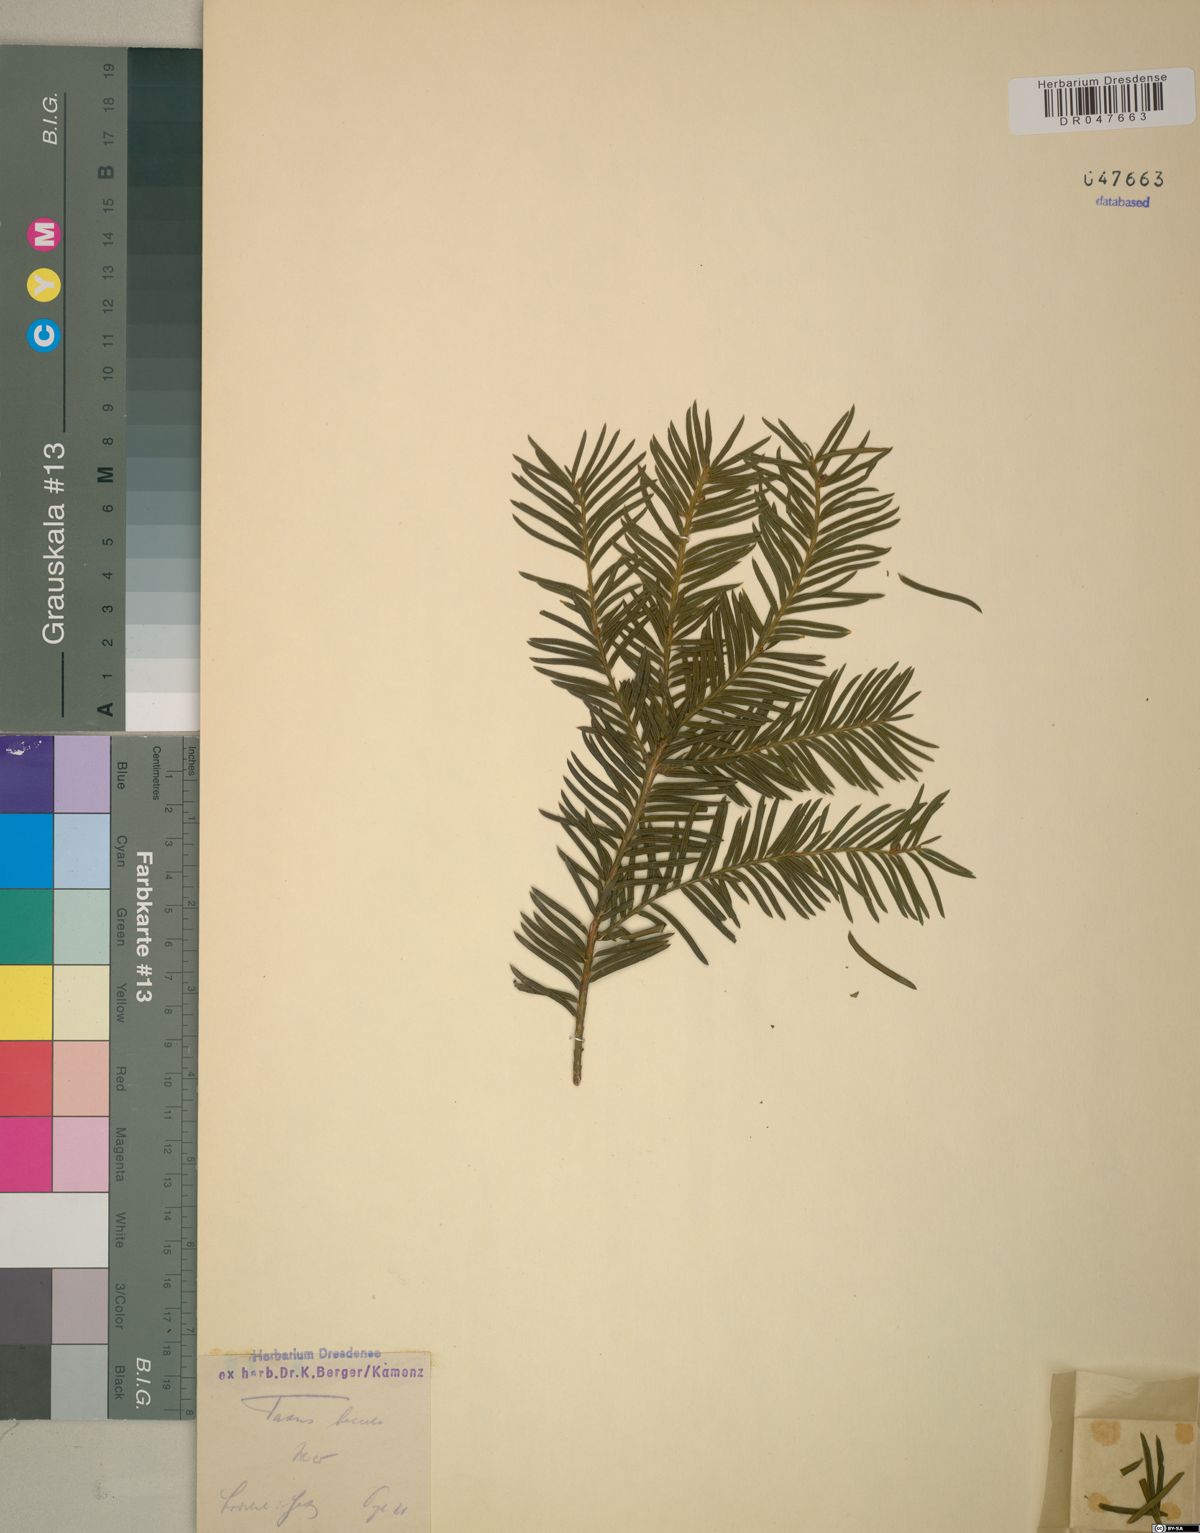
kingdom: Plantae
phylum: Tracheophyta
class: Pinopsida
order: Pinales
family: Taxaceae
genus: Taxus
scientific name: Taxus baccata
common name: Yew
